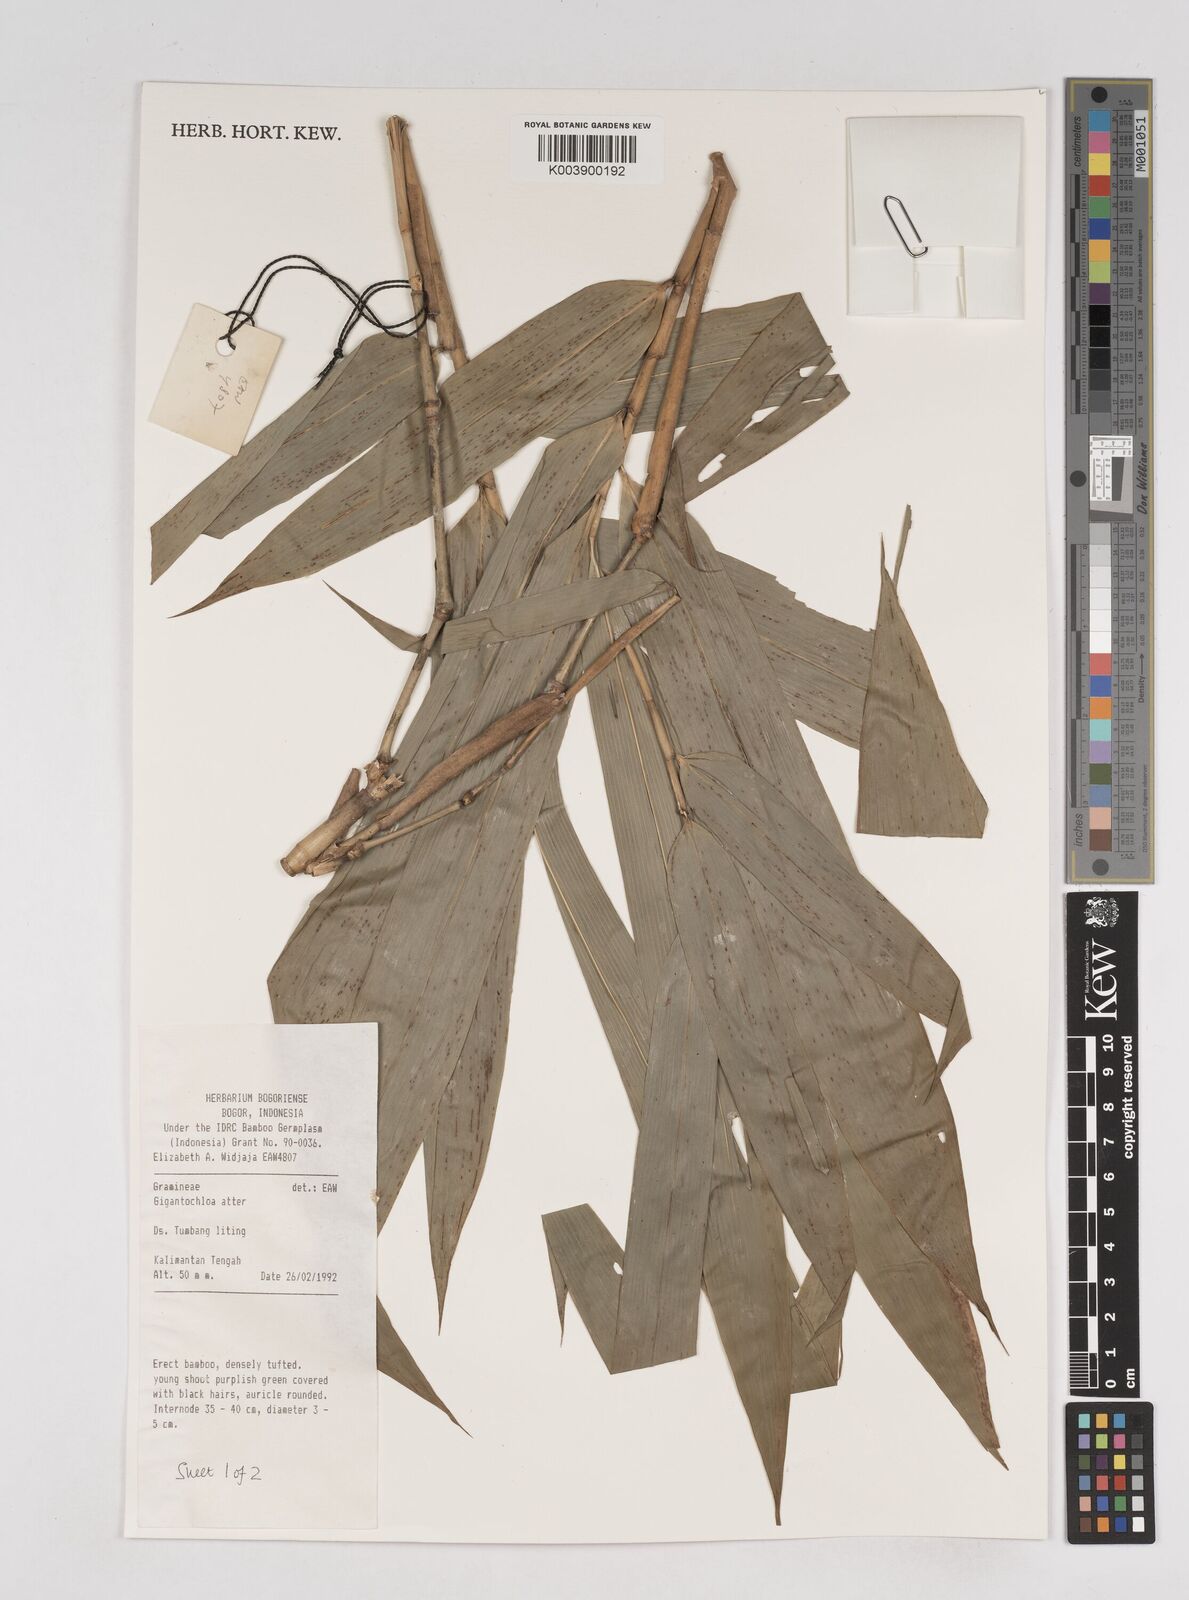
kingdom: Plantae
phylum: Tracheophyta
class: Liliopsida
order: Poales
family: Poaceae
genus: Gigantochloa
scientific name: Gigantochloa atter
